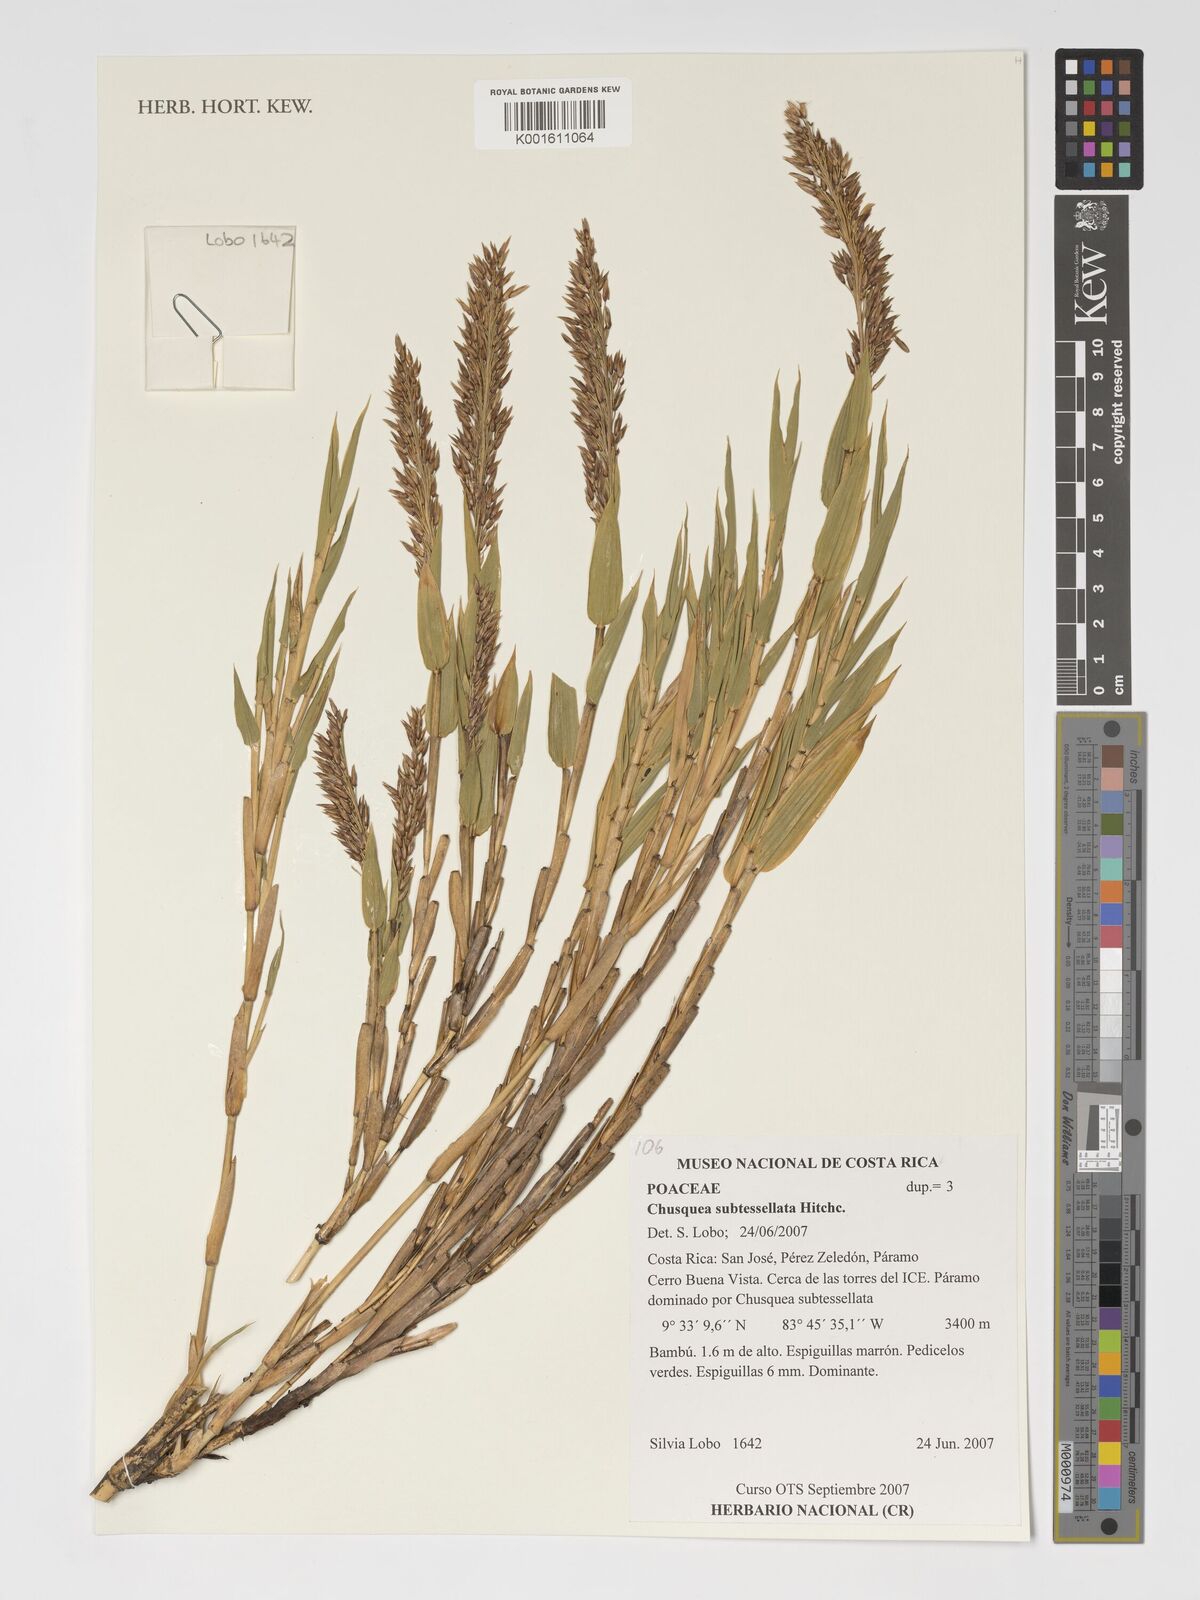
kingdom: Plantae
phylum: Tracheophyta
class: Liliopsida
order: Poales
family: Poaceae
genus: Chusquea
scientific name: Chusquea subtessellata
